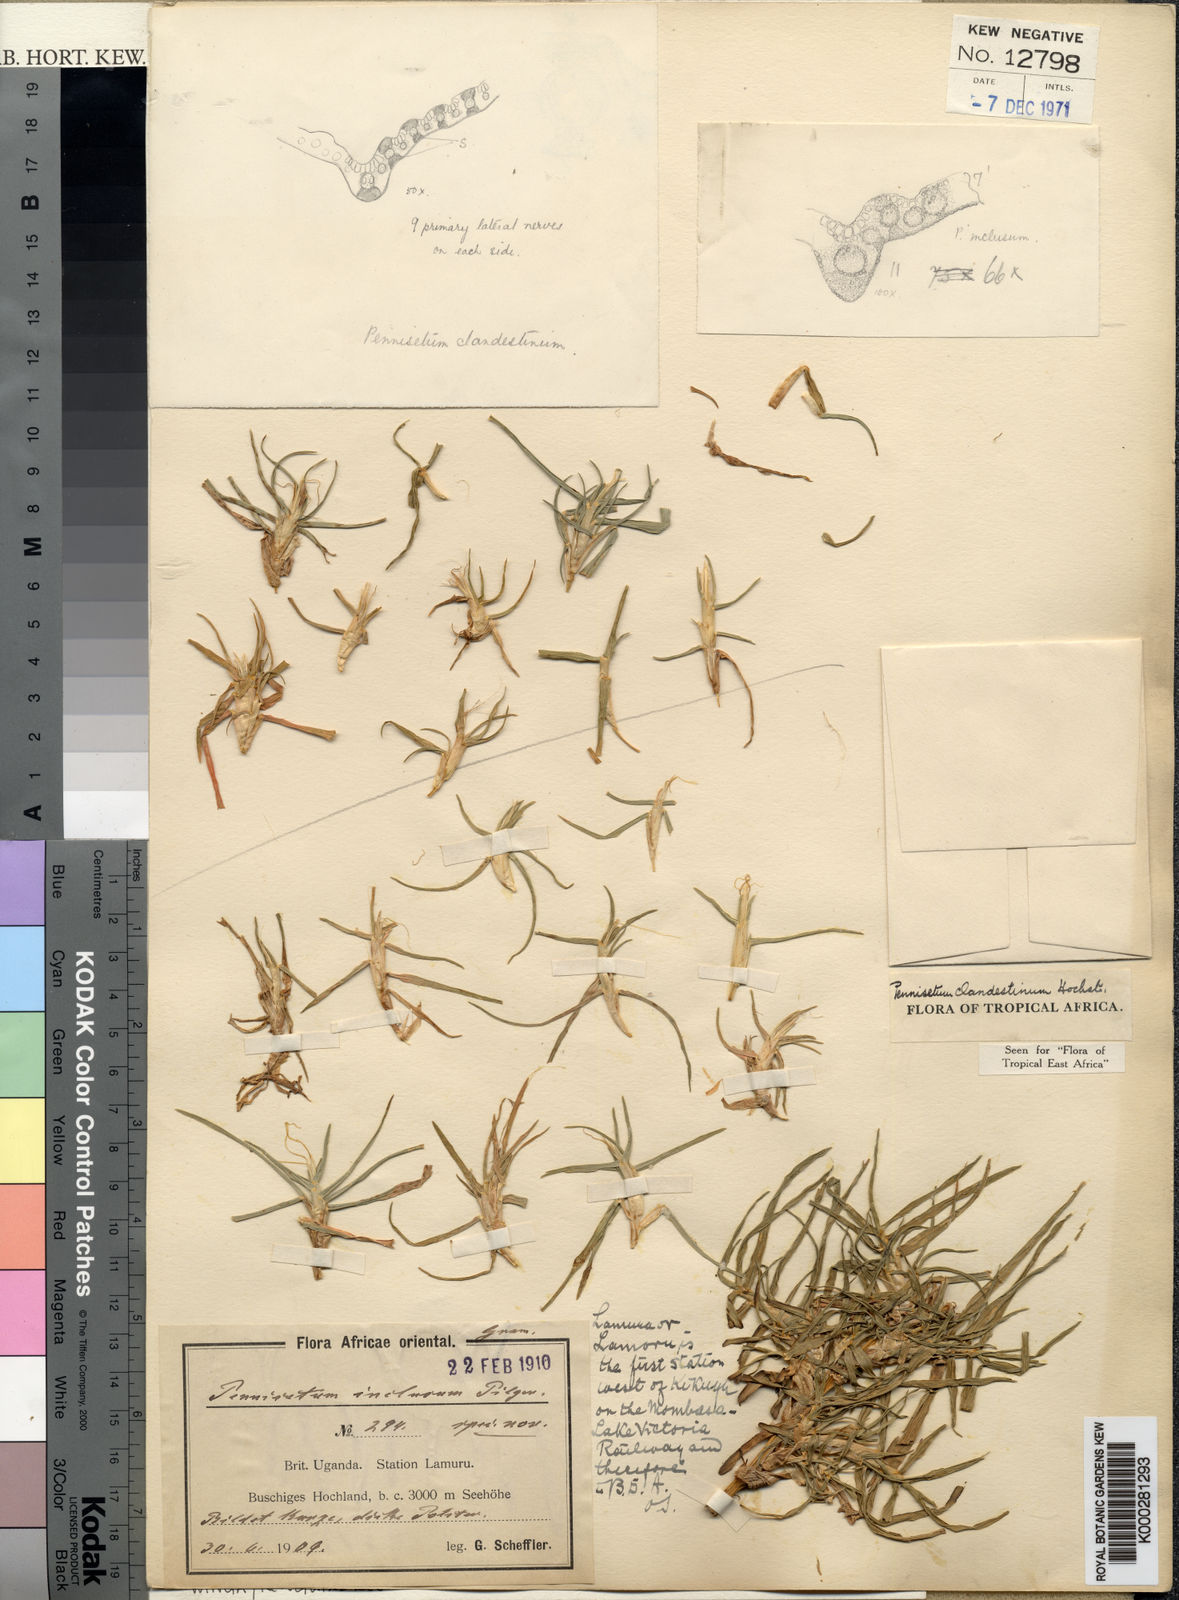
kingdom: Plantae
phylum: Tracheophyta
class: Liliopsida
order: Poales
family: Poaceae
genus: Cenchrus
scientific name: Cenchrus clandestinus
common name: Kikuyugrass
